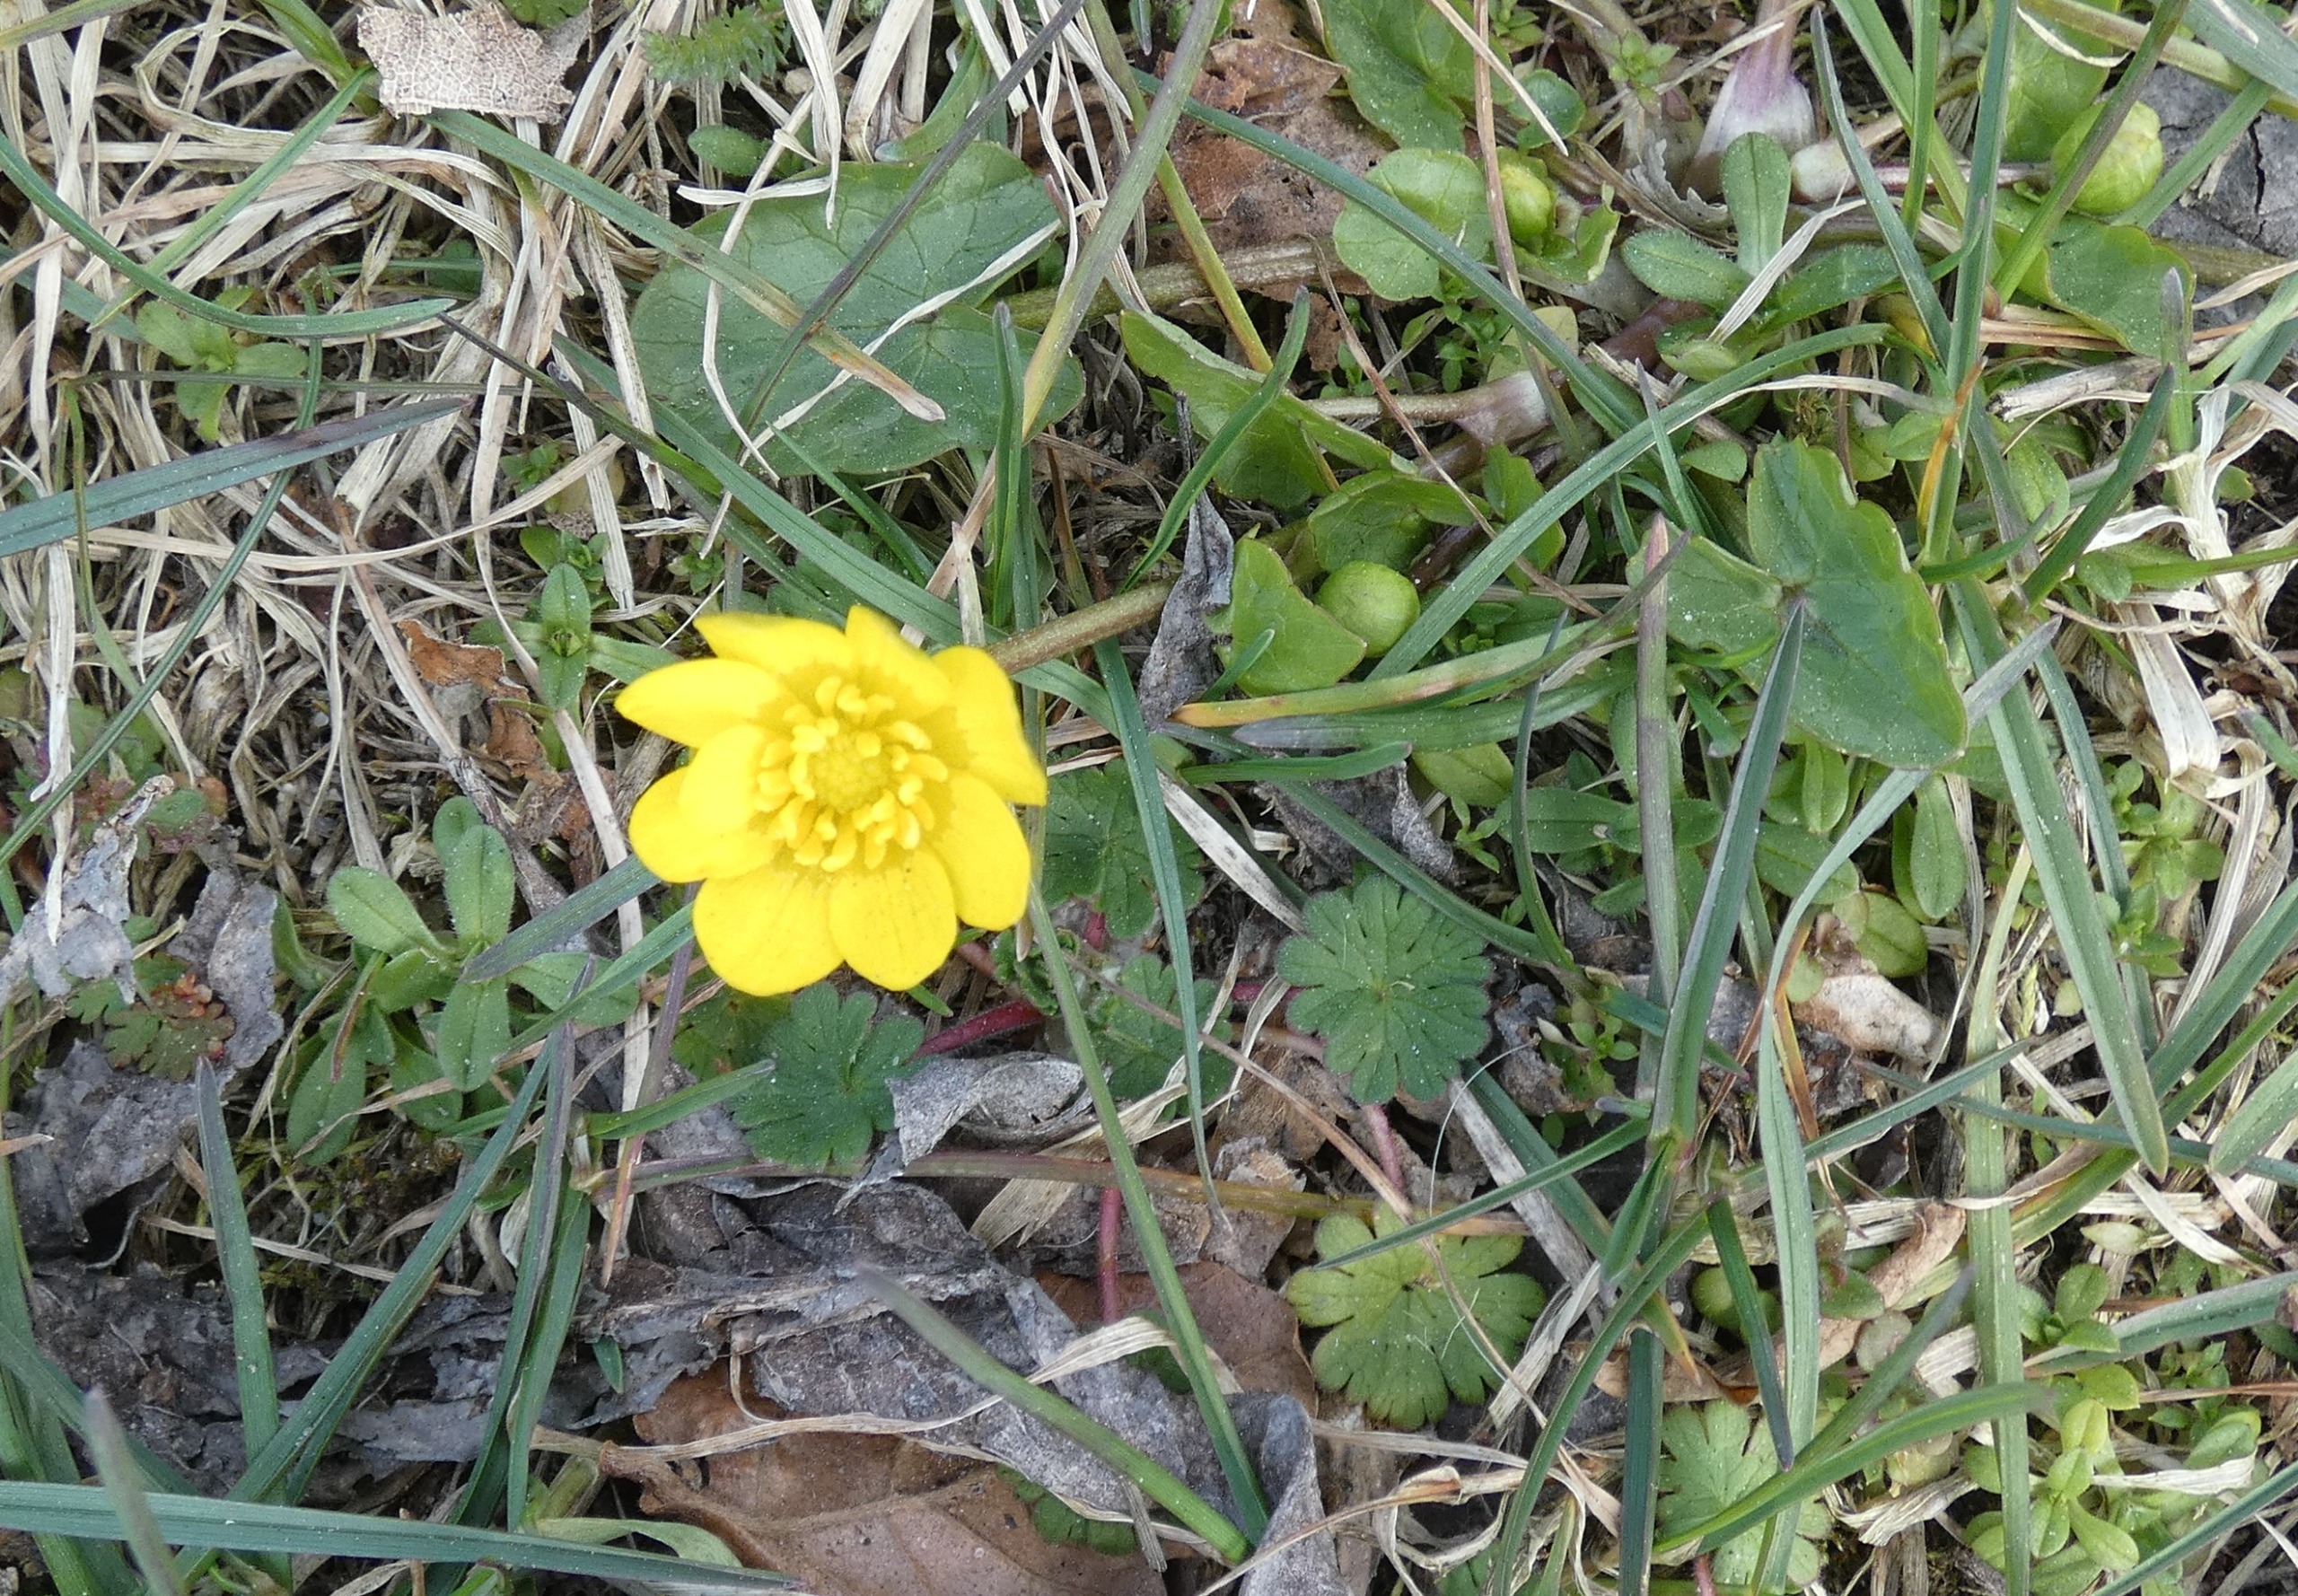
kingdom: Plantae
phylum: Tracheophyta
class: Magnoliopsida
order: Ranunculales
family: Ranunculaceae
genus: Ficaria
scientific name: Ficaria verna
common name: Vorterod
